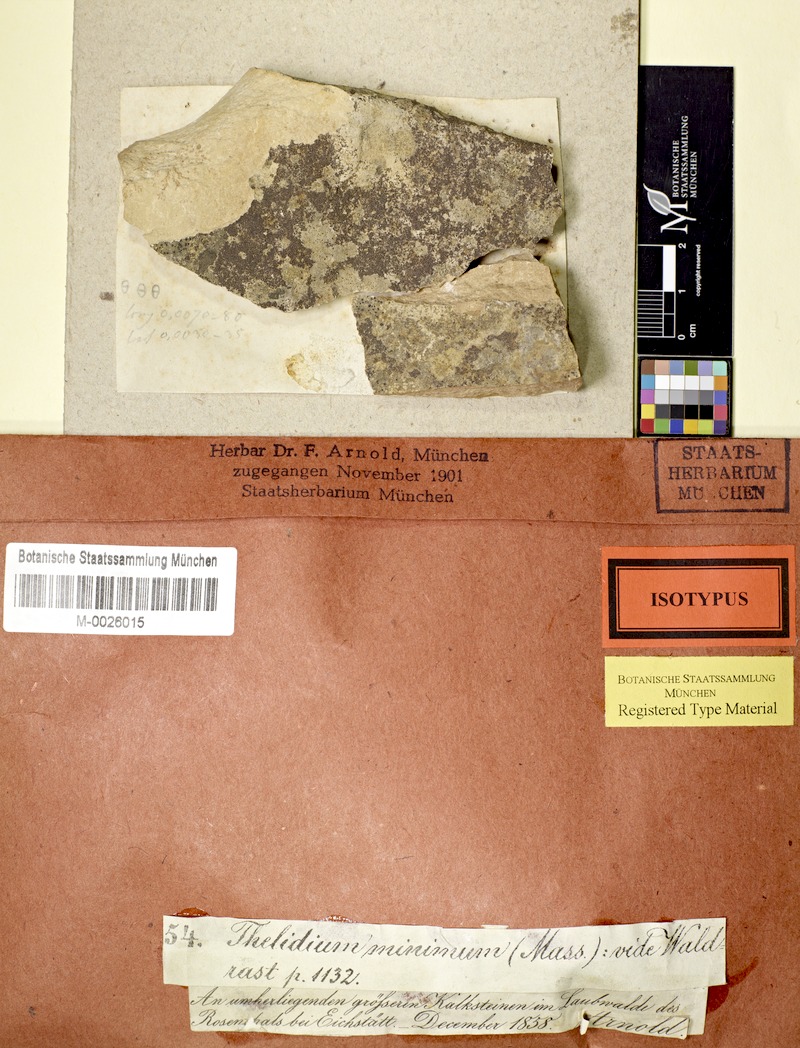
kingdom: Fungi
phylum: Ascomycota
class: Eurotiomycetes
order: Verrucariales
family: Verrucariaceae
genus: Thelidium
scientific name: Thelidium minimum
